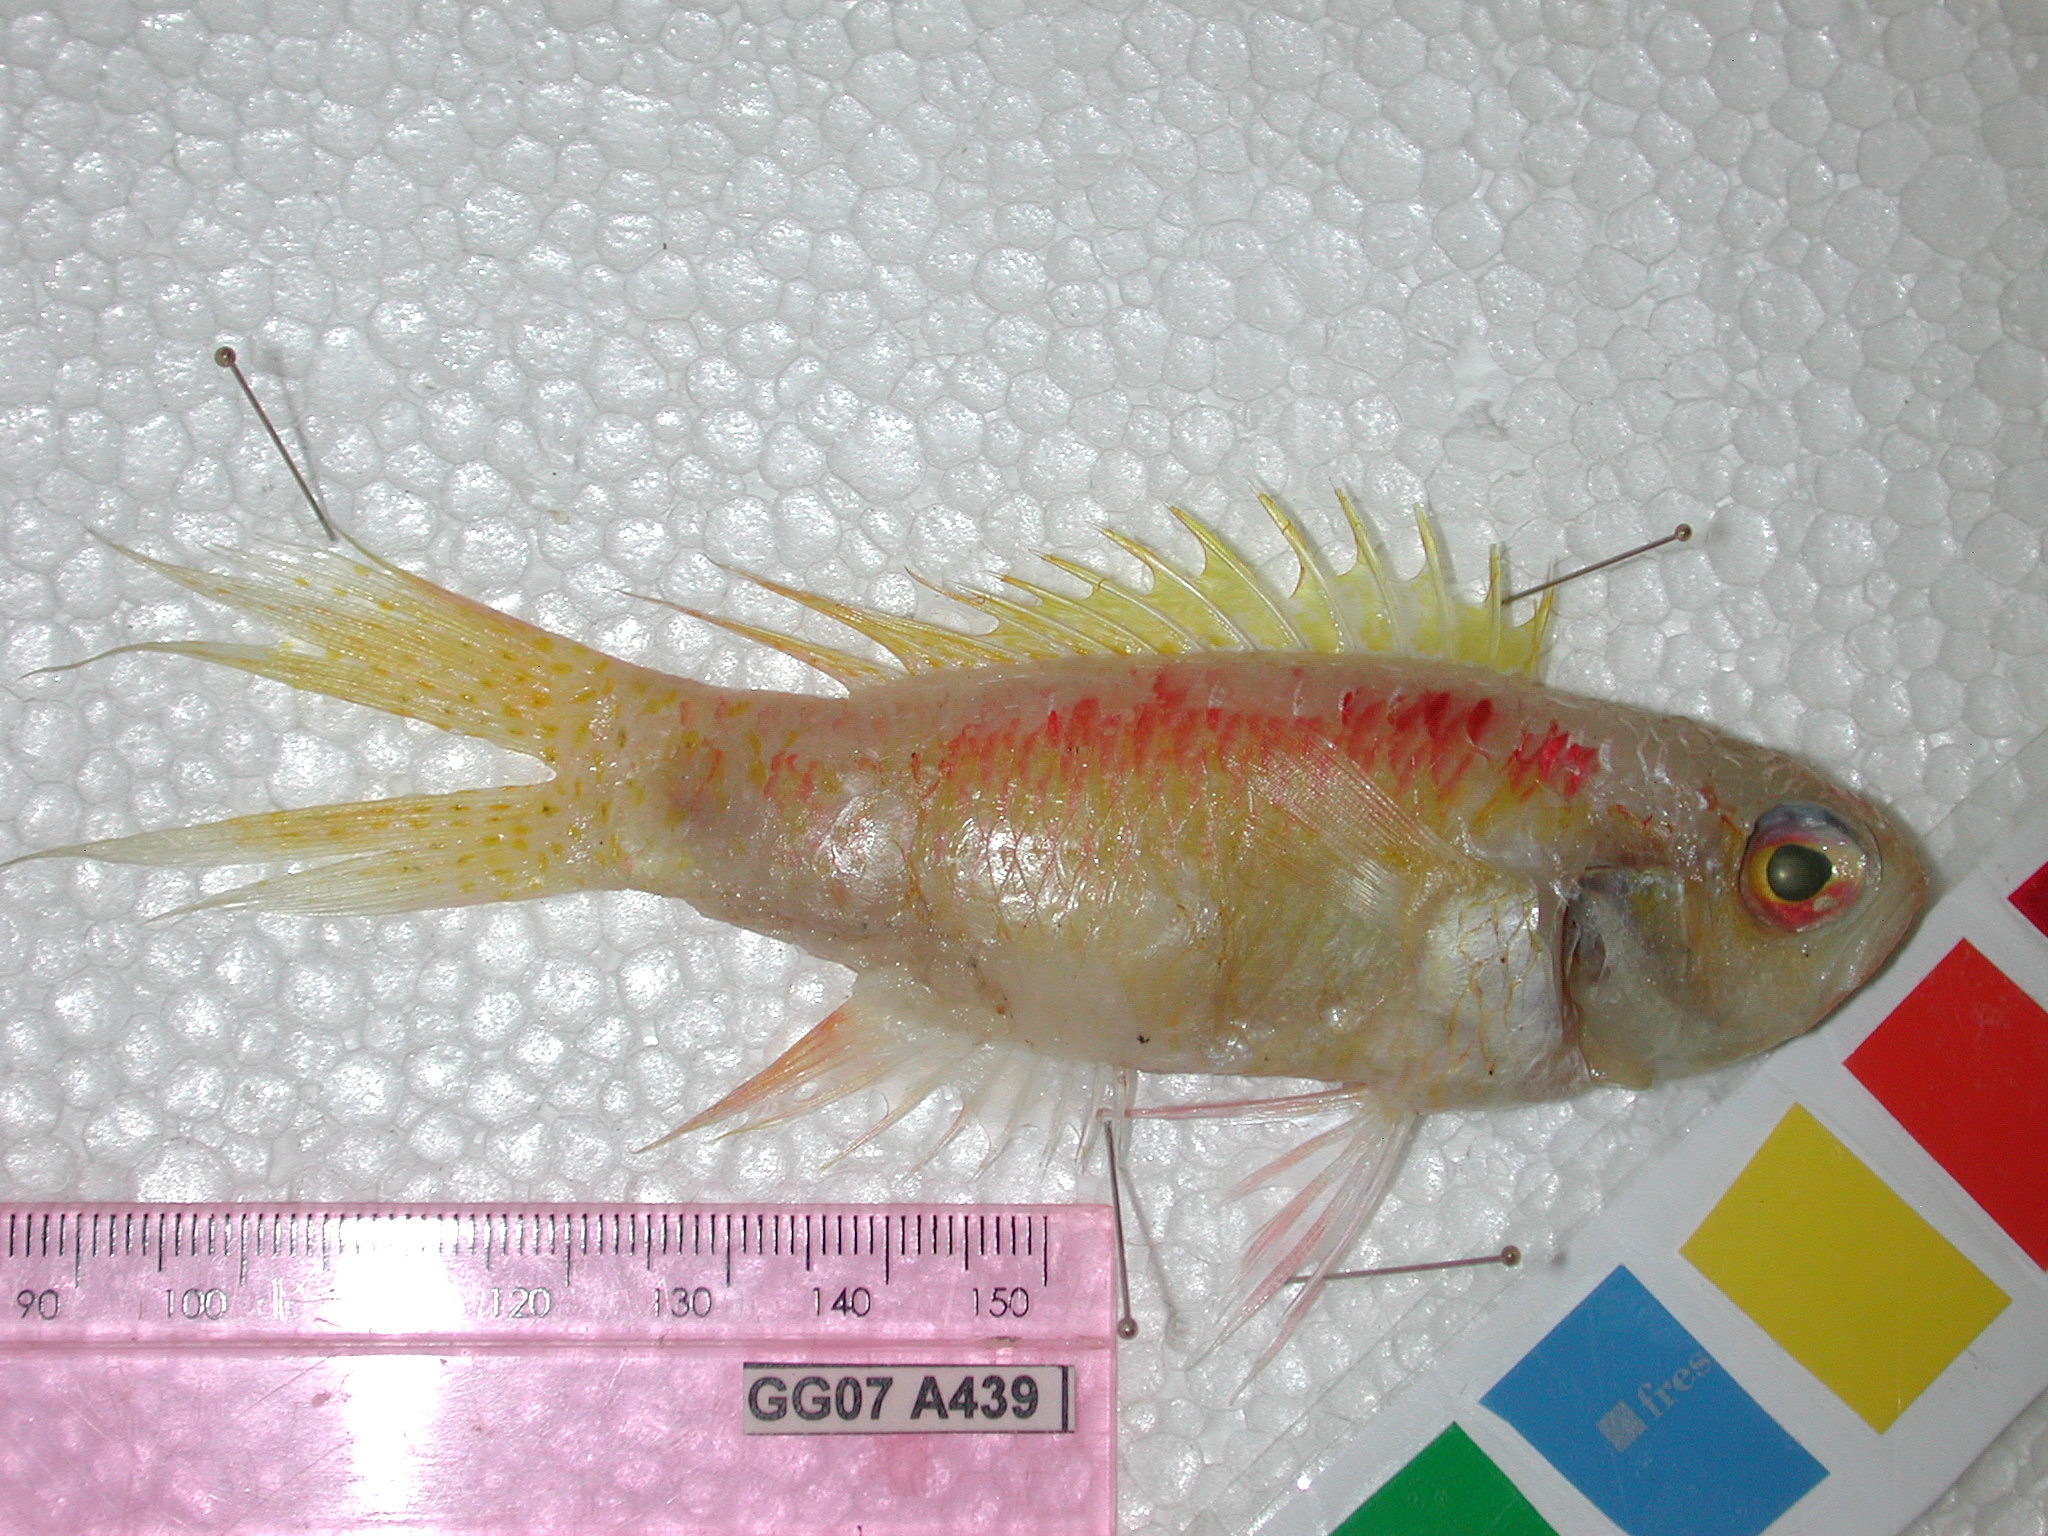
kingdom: Animalia
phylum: Chordata
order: Perciformes
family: Callanthiidae
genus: Grammatonotus
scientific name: Grammatonotus
